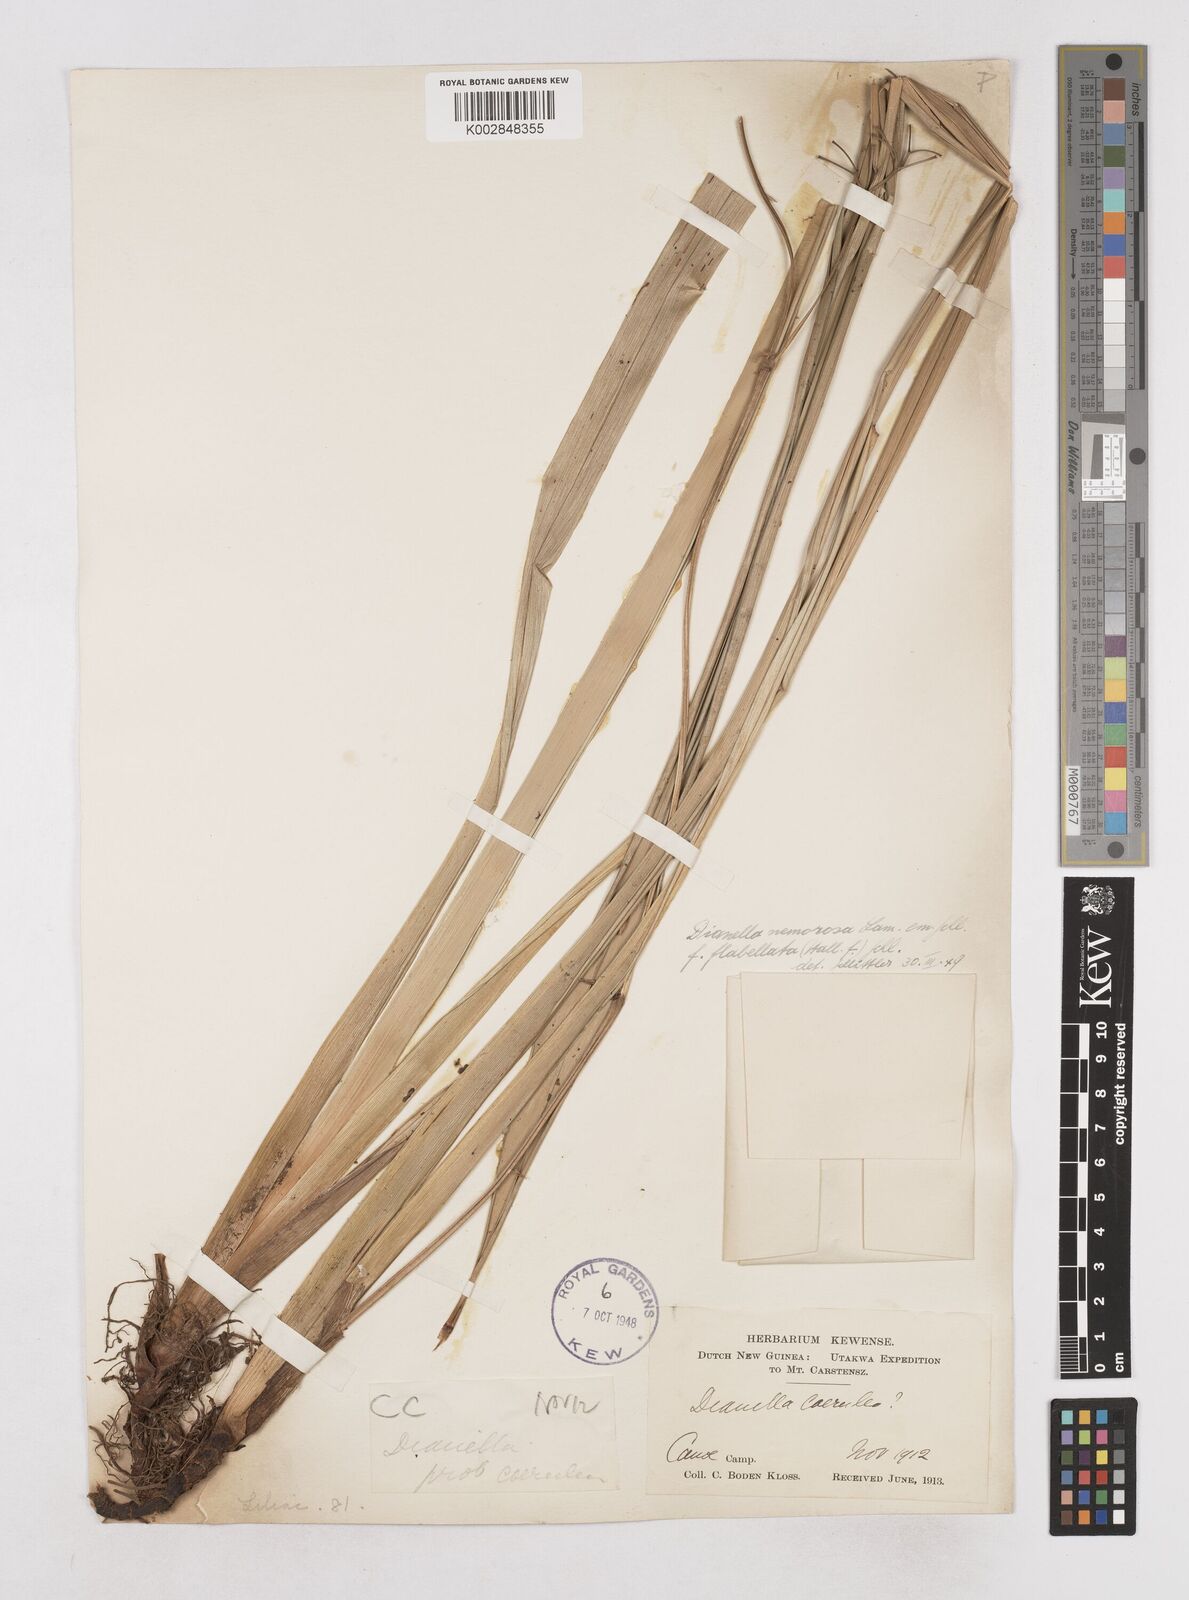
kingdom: Plantae
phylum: Tracheophyta
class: Liliopsida
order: Asparagales
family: Asphodelaceae
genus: Dianella
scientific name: Dianella ensifolia
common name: New zealand lilyplant
